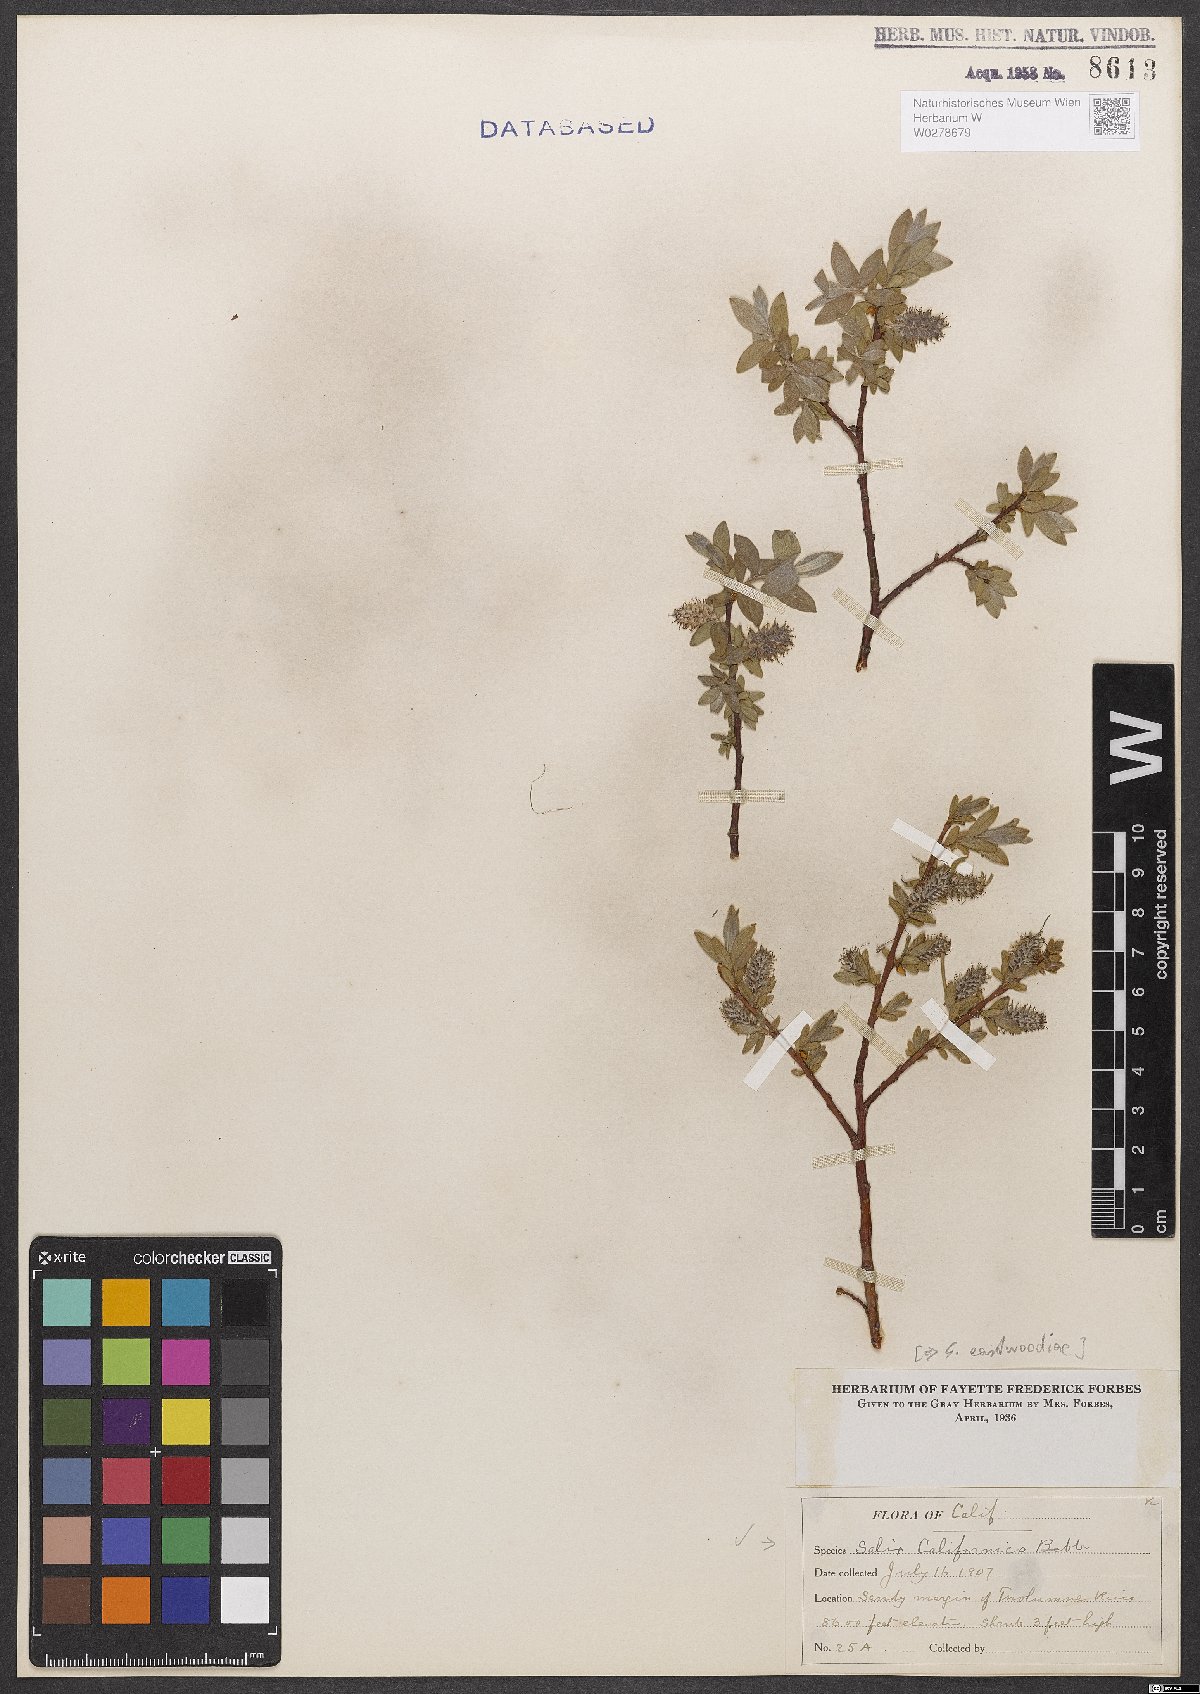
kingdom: Plantae
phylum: Tracheophyta
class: Magnoliopsida
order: Malpighiales
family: Salicaceae
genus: Salix
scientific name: Salix eastwoodiae
